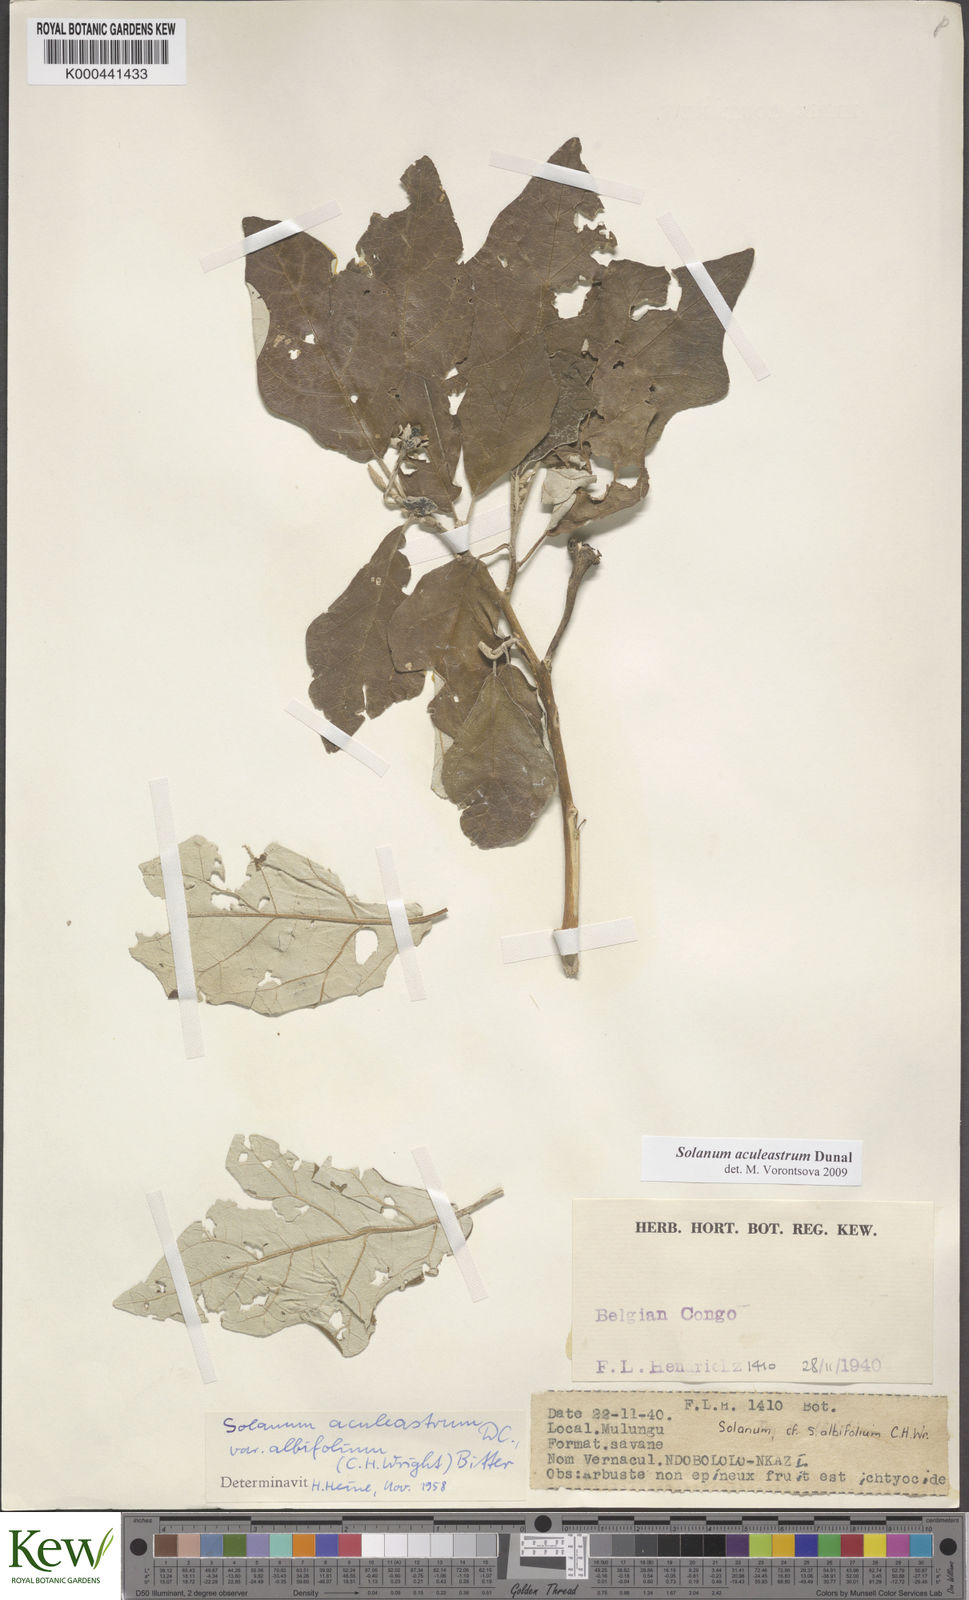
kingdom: Plantae
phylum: Tracheophyta
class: Magnoliopsida
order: Solanales
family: Solanaceae
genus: Solanum
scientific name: Solanum aculeastrum
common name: Goat bitter-apple
